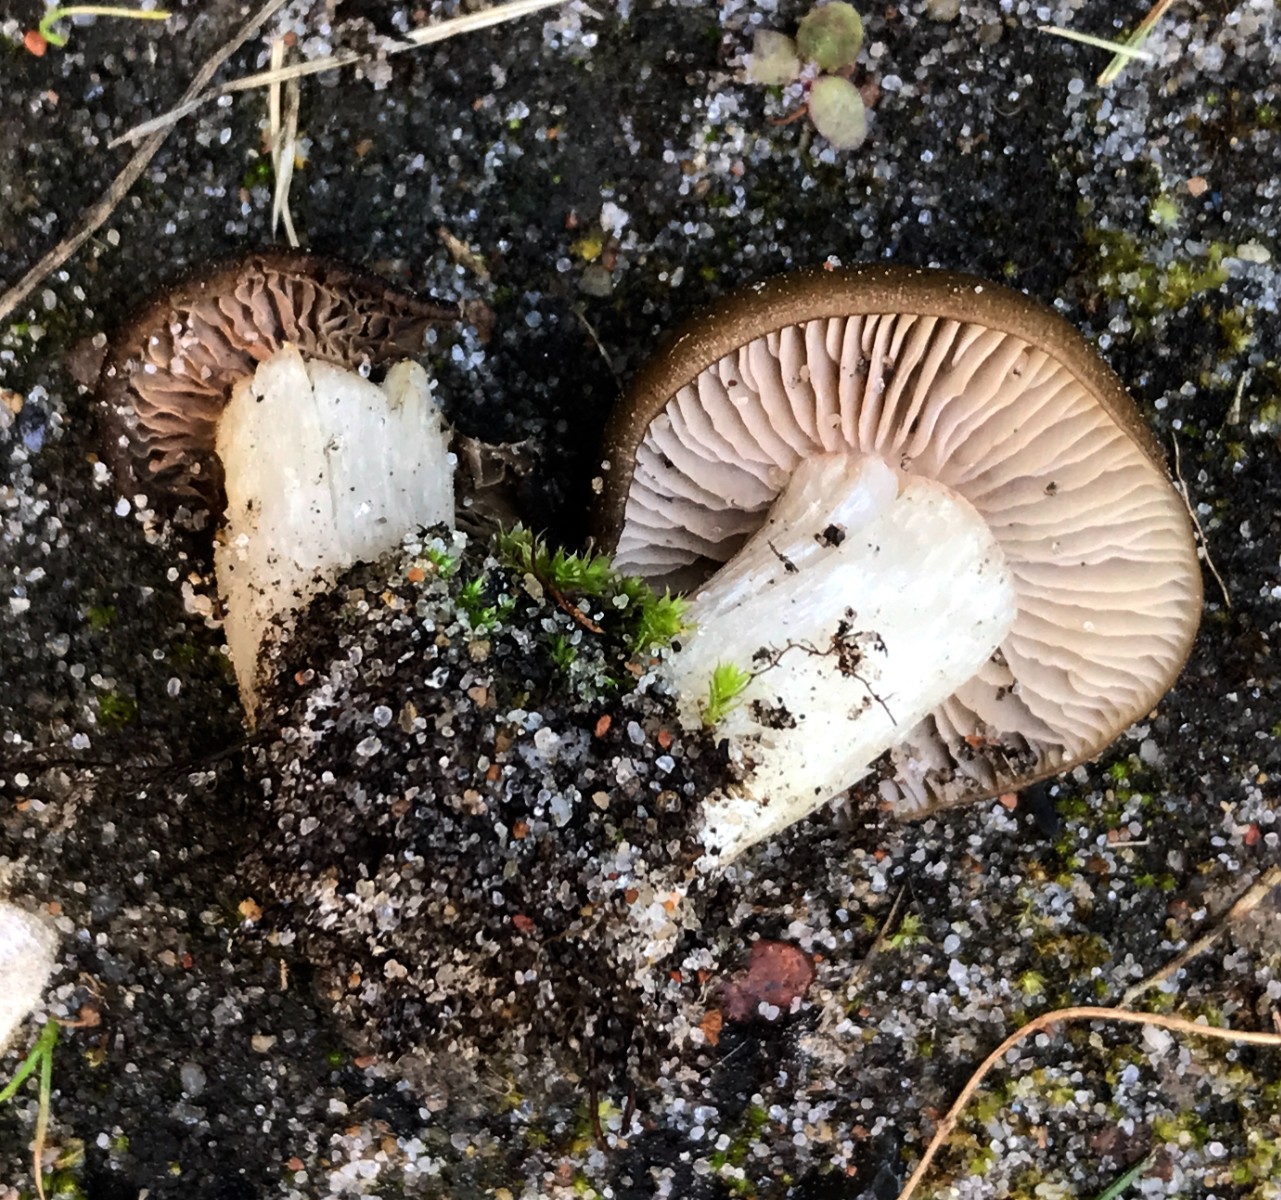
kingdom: Fungi
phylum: Basidiomycota
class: Agaricomycetes
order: Agaricales
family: Entolomataceae
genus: Entoloma
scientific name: Entoloma clypeatum
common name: flammet rødblad
